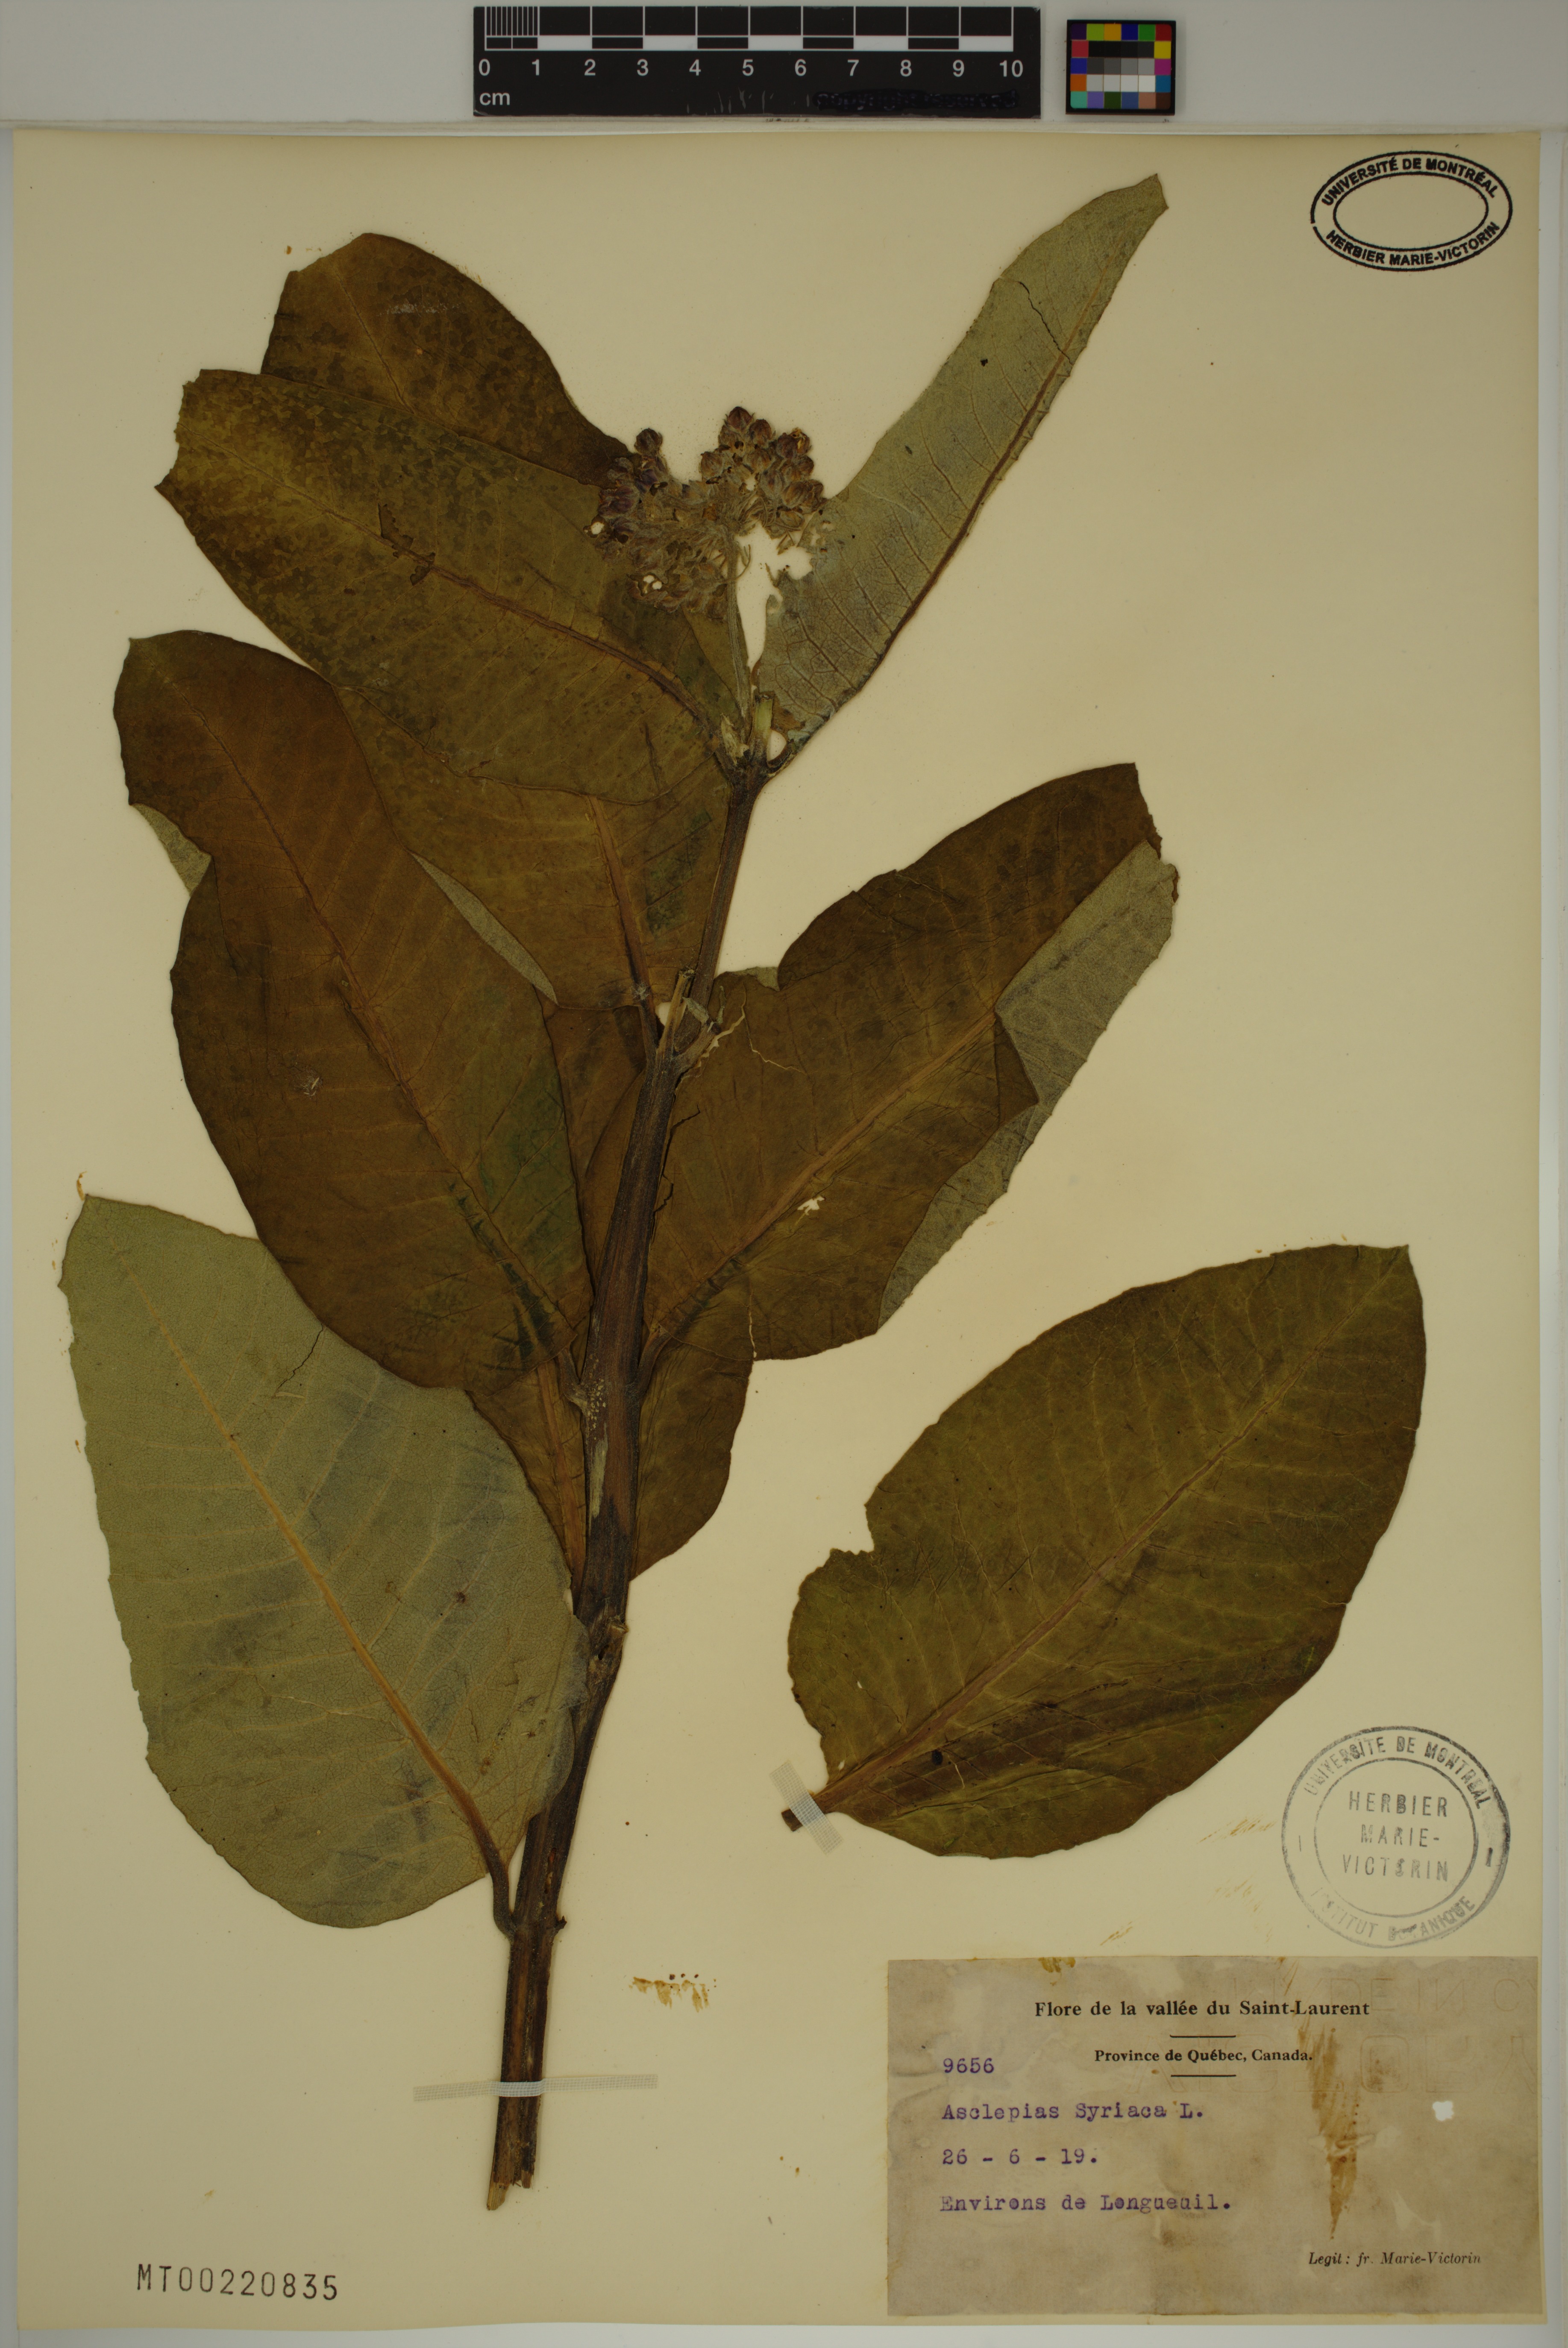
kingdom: Plantae
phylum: Tracheophyta
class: Magnoliopsida
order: Gentianales
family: Apocynaceae
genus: Asclepias
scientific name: Asclepias syriaca
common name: Common milkweed
